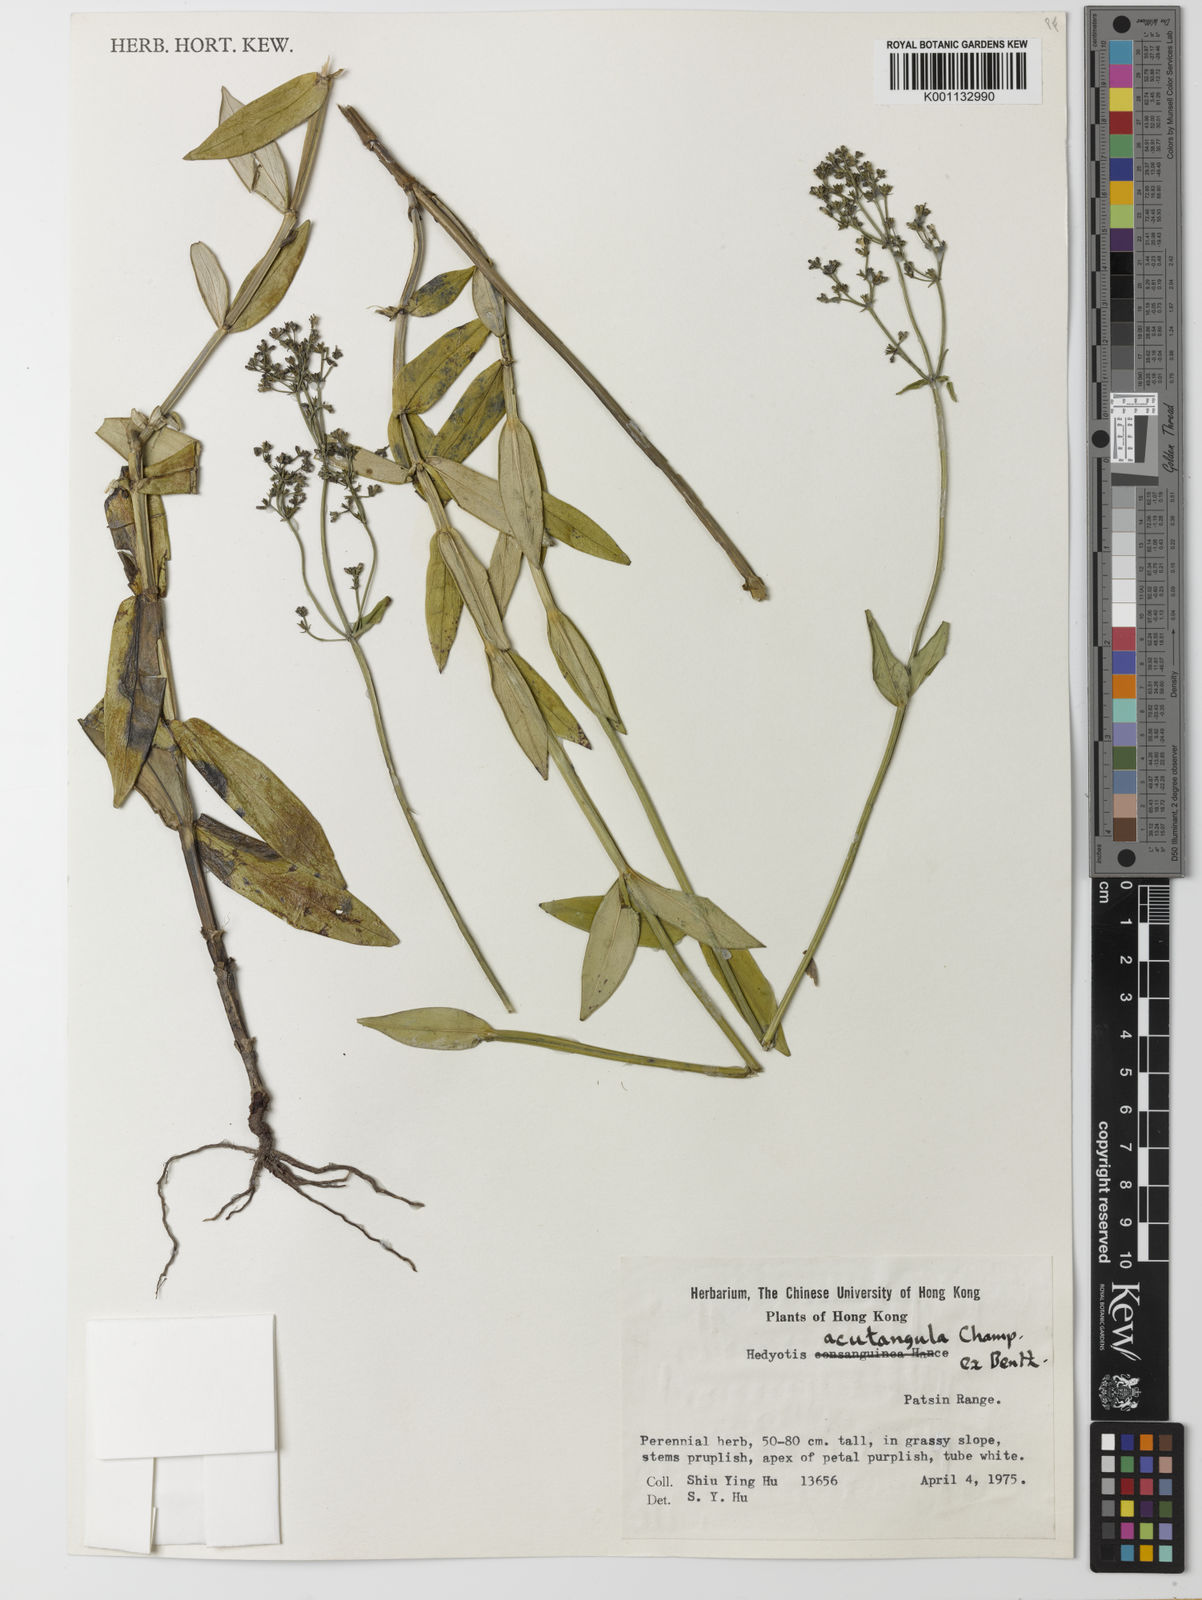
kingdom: Plantae
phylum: Tracheophyta
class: Magnoliopsida
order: Gentianales
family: Rubiaceae
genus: Hedyotis
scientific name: Hedyotis acutangula
